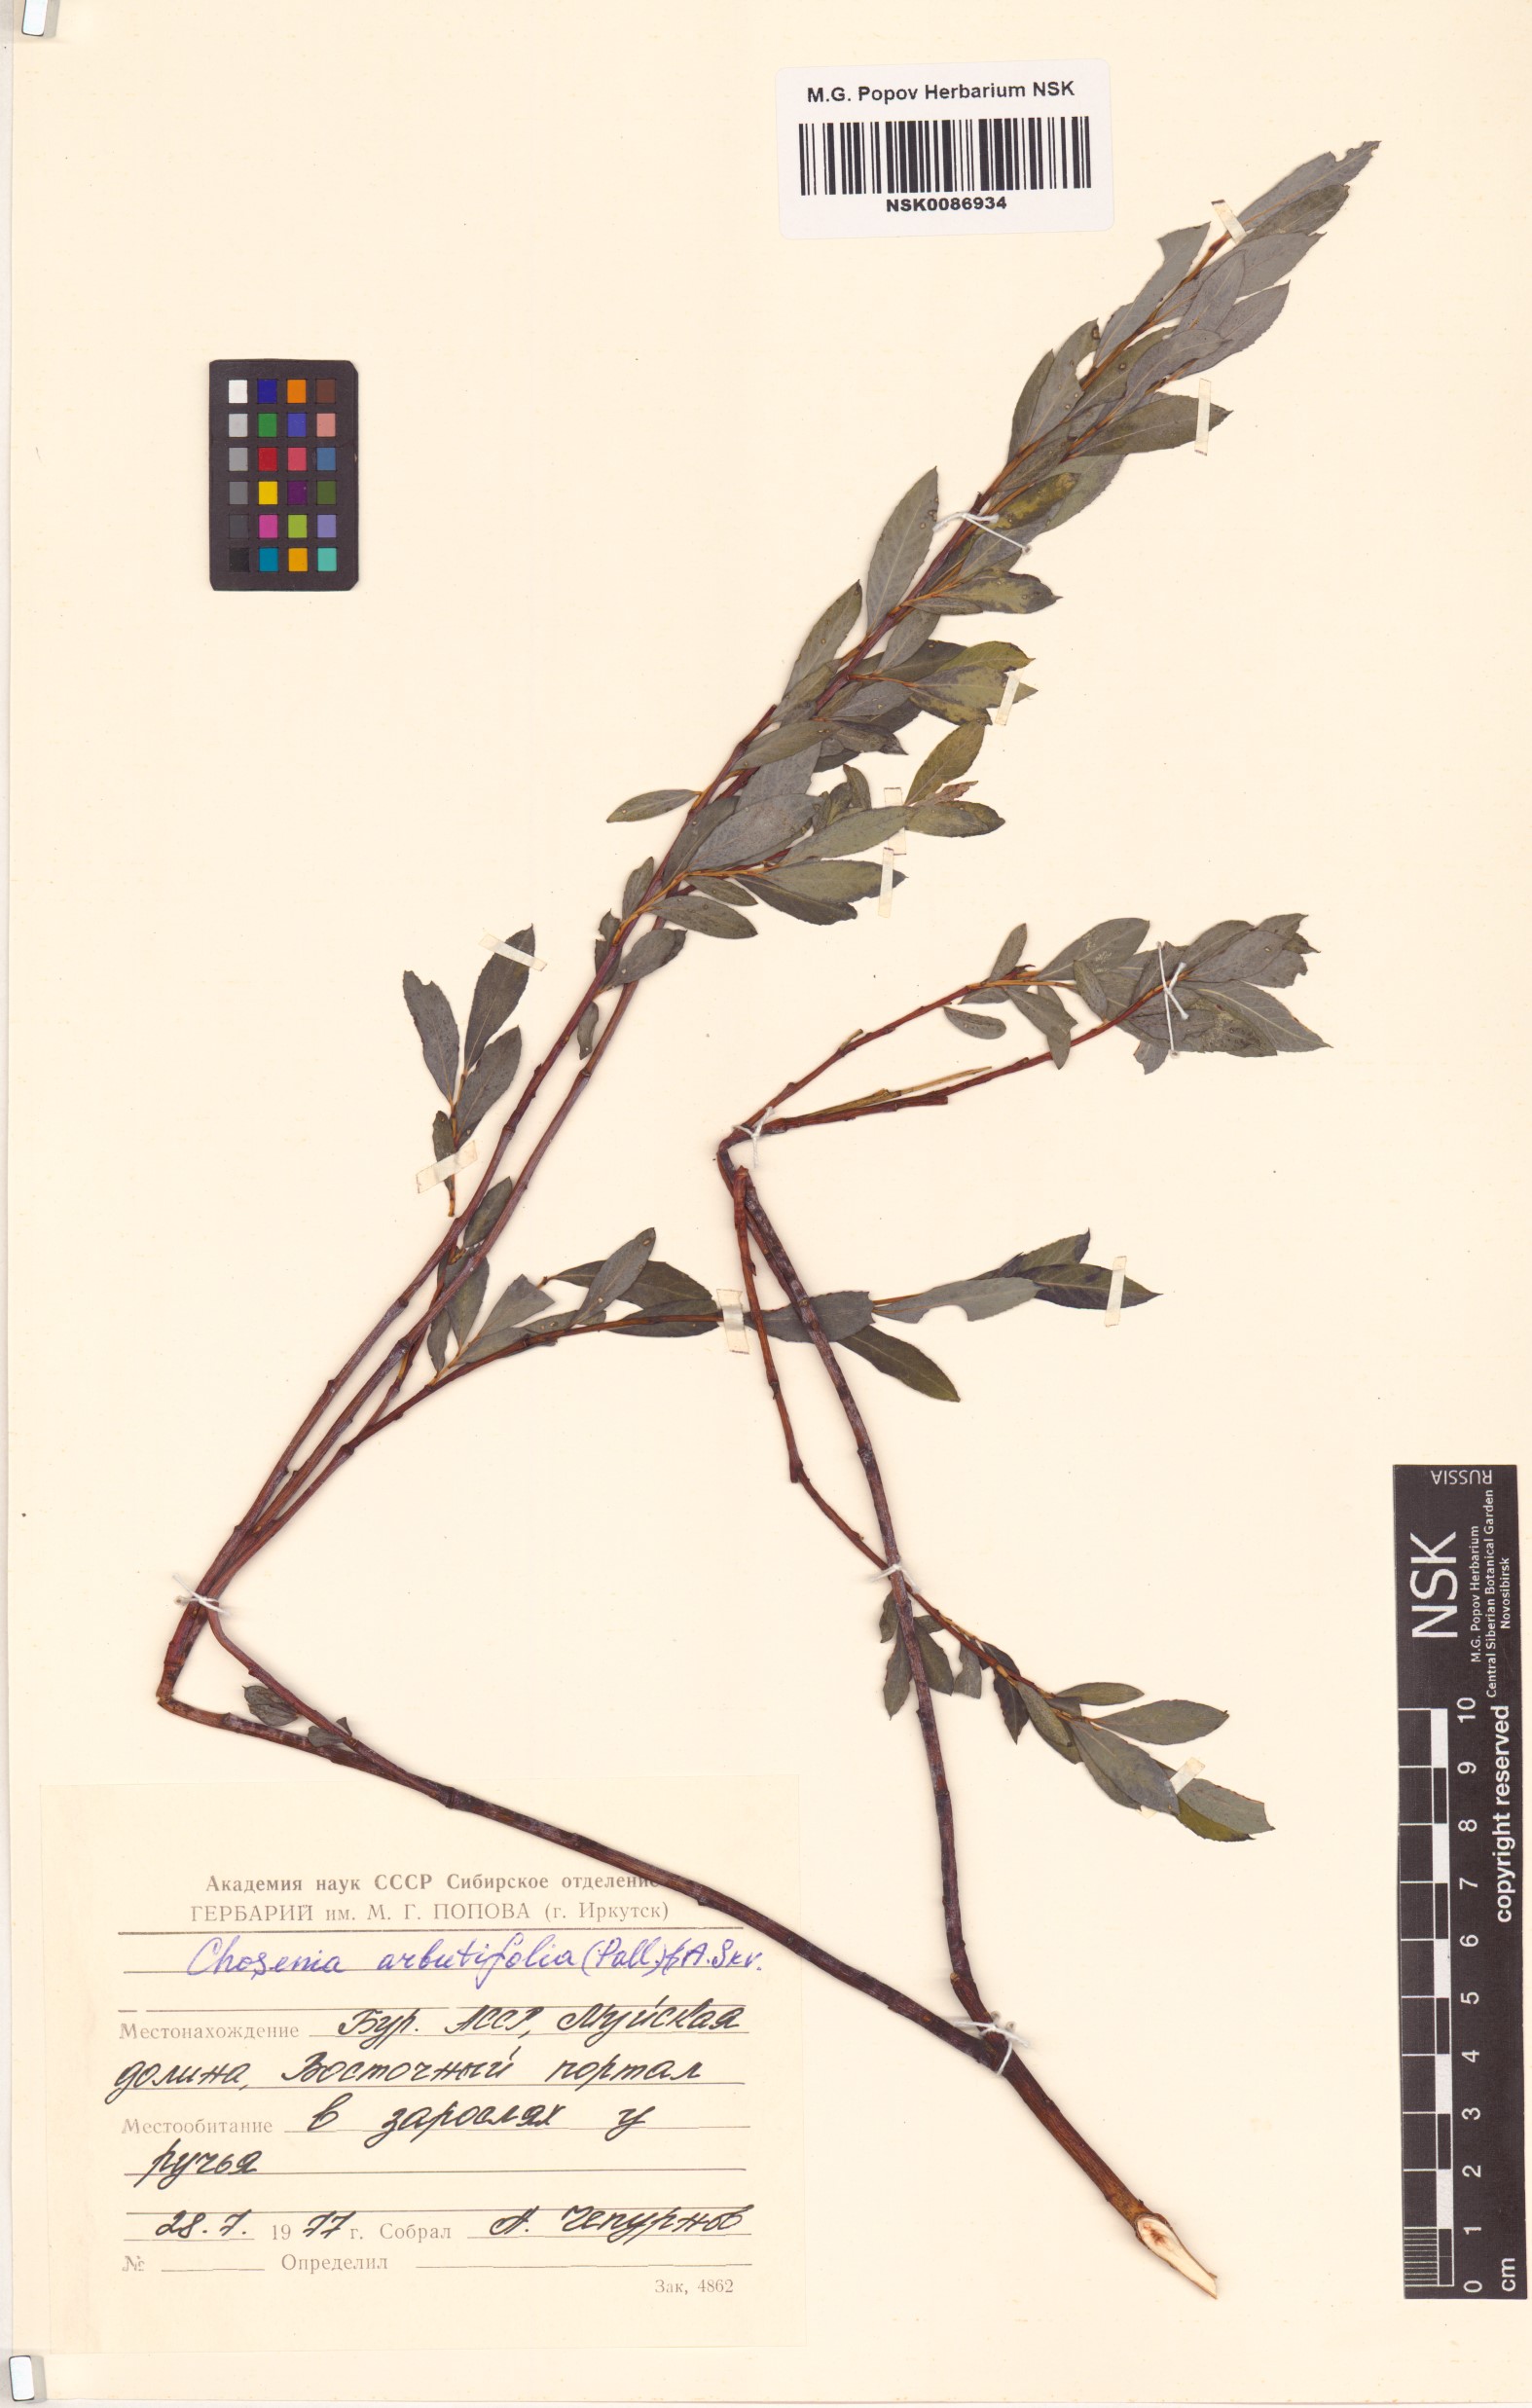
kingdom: Plantae
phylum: Tracheophyta
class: Magnoliopsida
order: Malpighiales
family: Salicaceae
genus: Chosenia
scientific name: Chosenia arbutifolia
